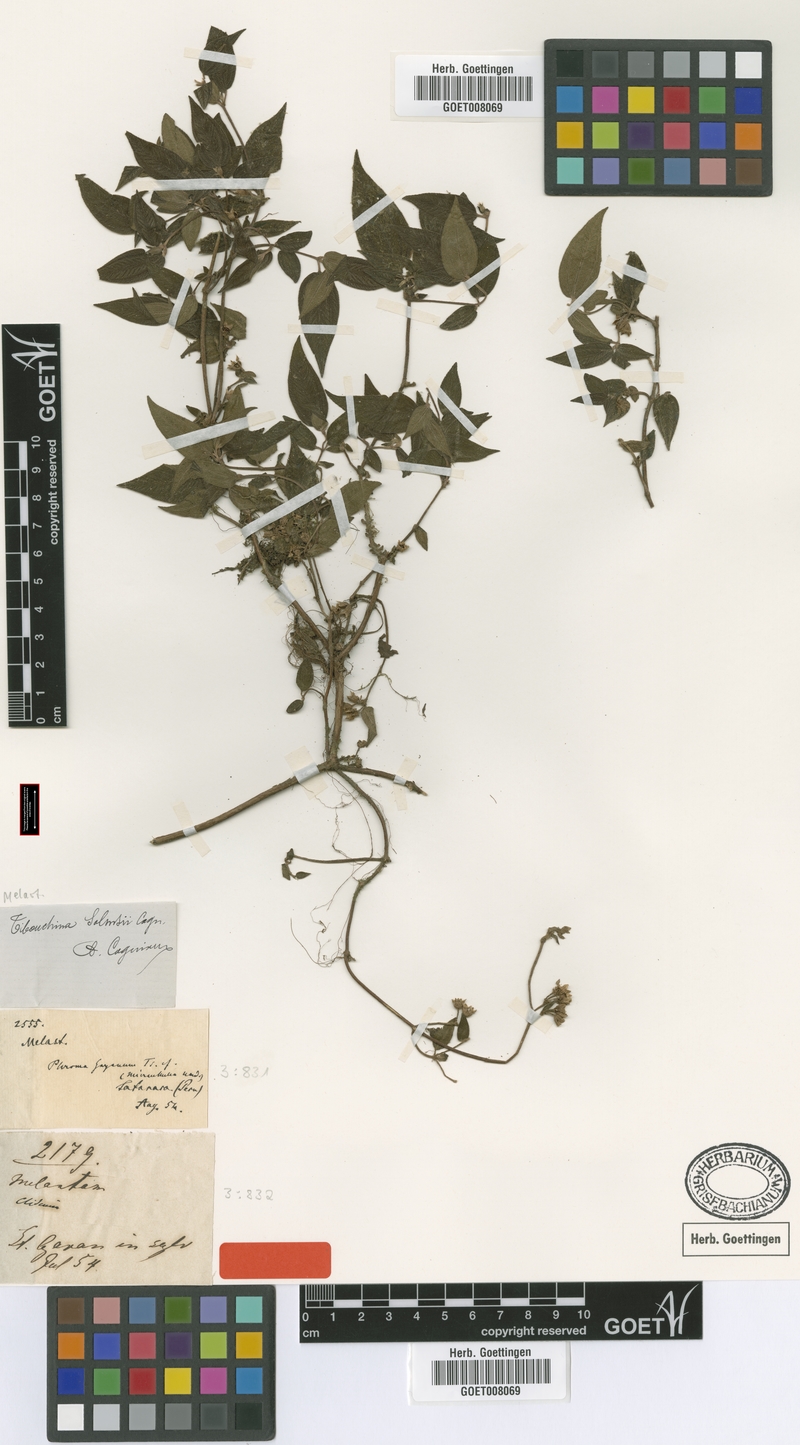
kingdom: Plantae
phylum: Tracheophyta
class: Magnoliopsida
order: Myrtales
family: Melastomataceae
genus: Chaetogastra
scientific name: Chaetogastra solmsii
